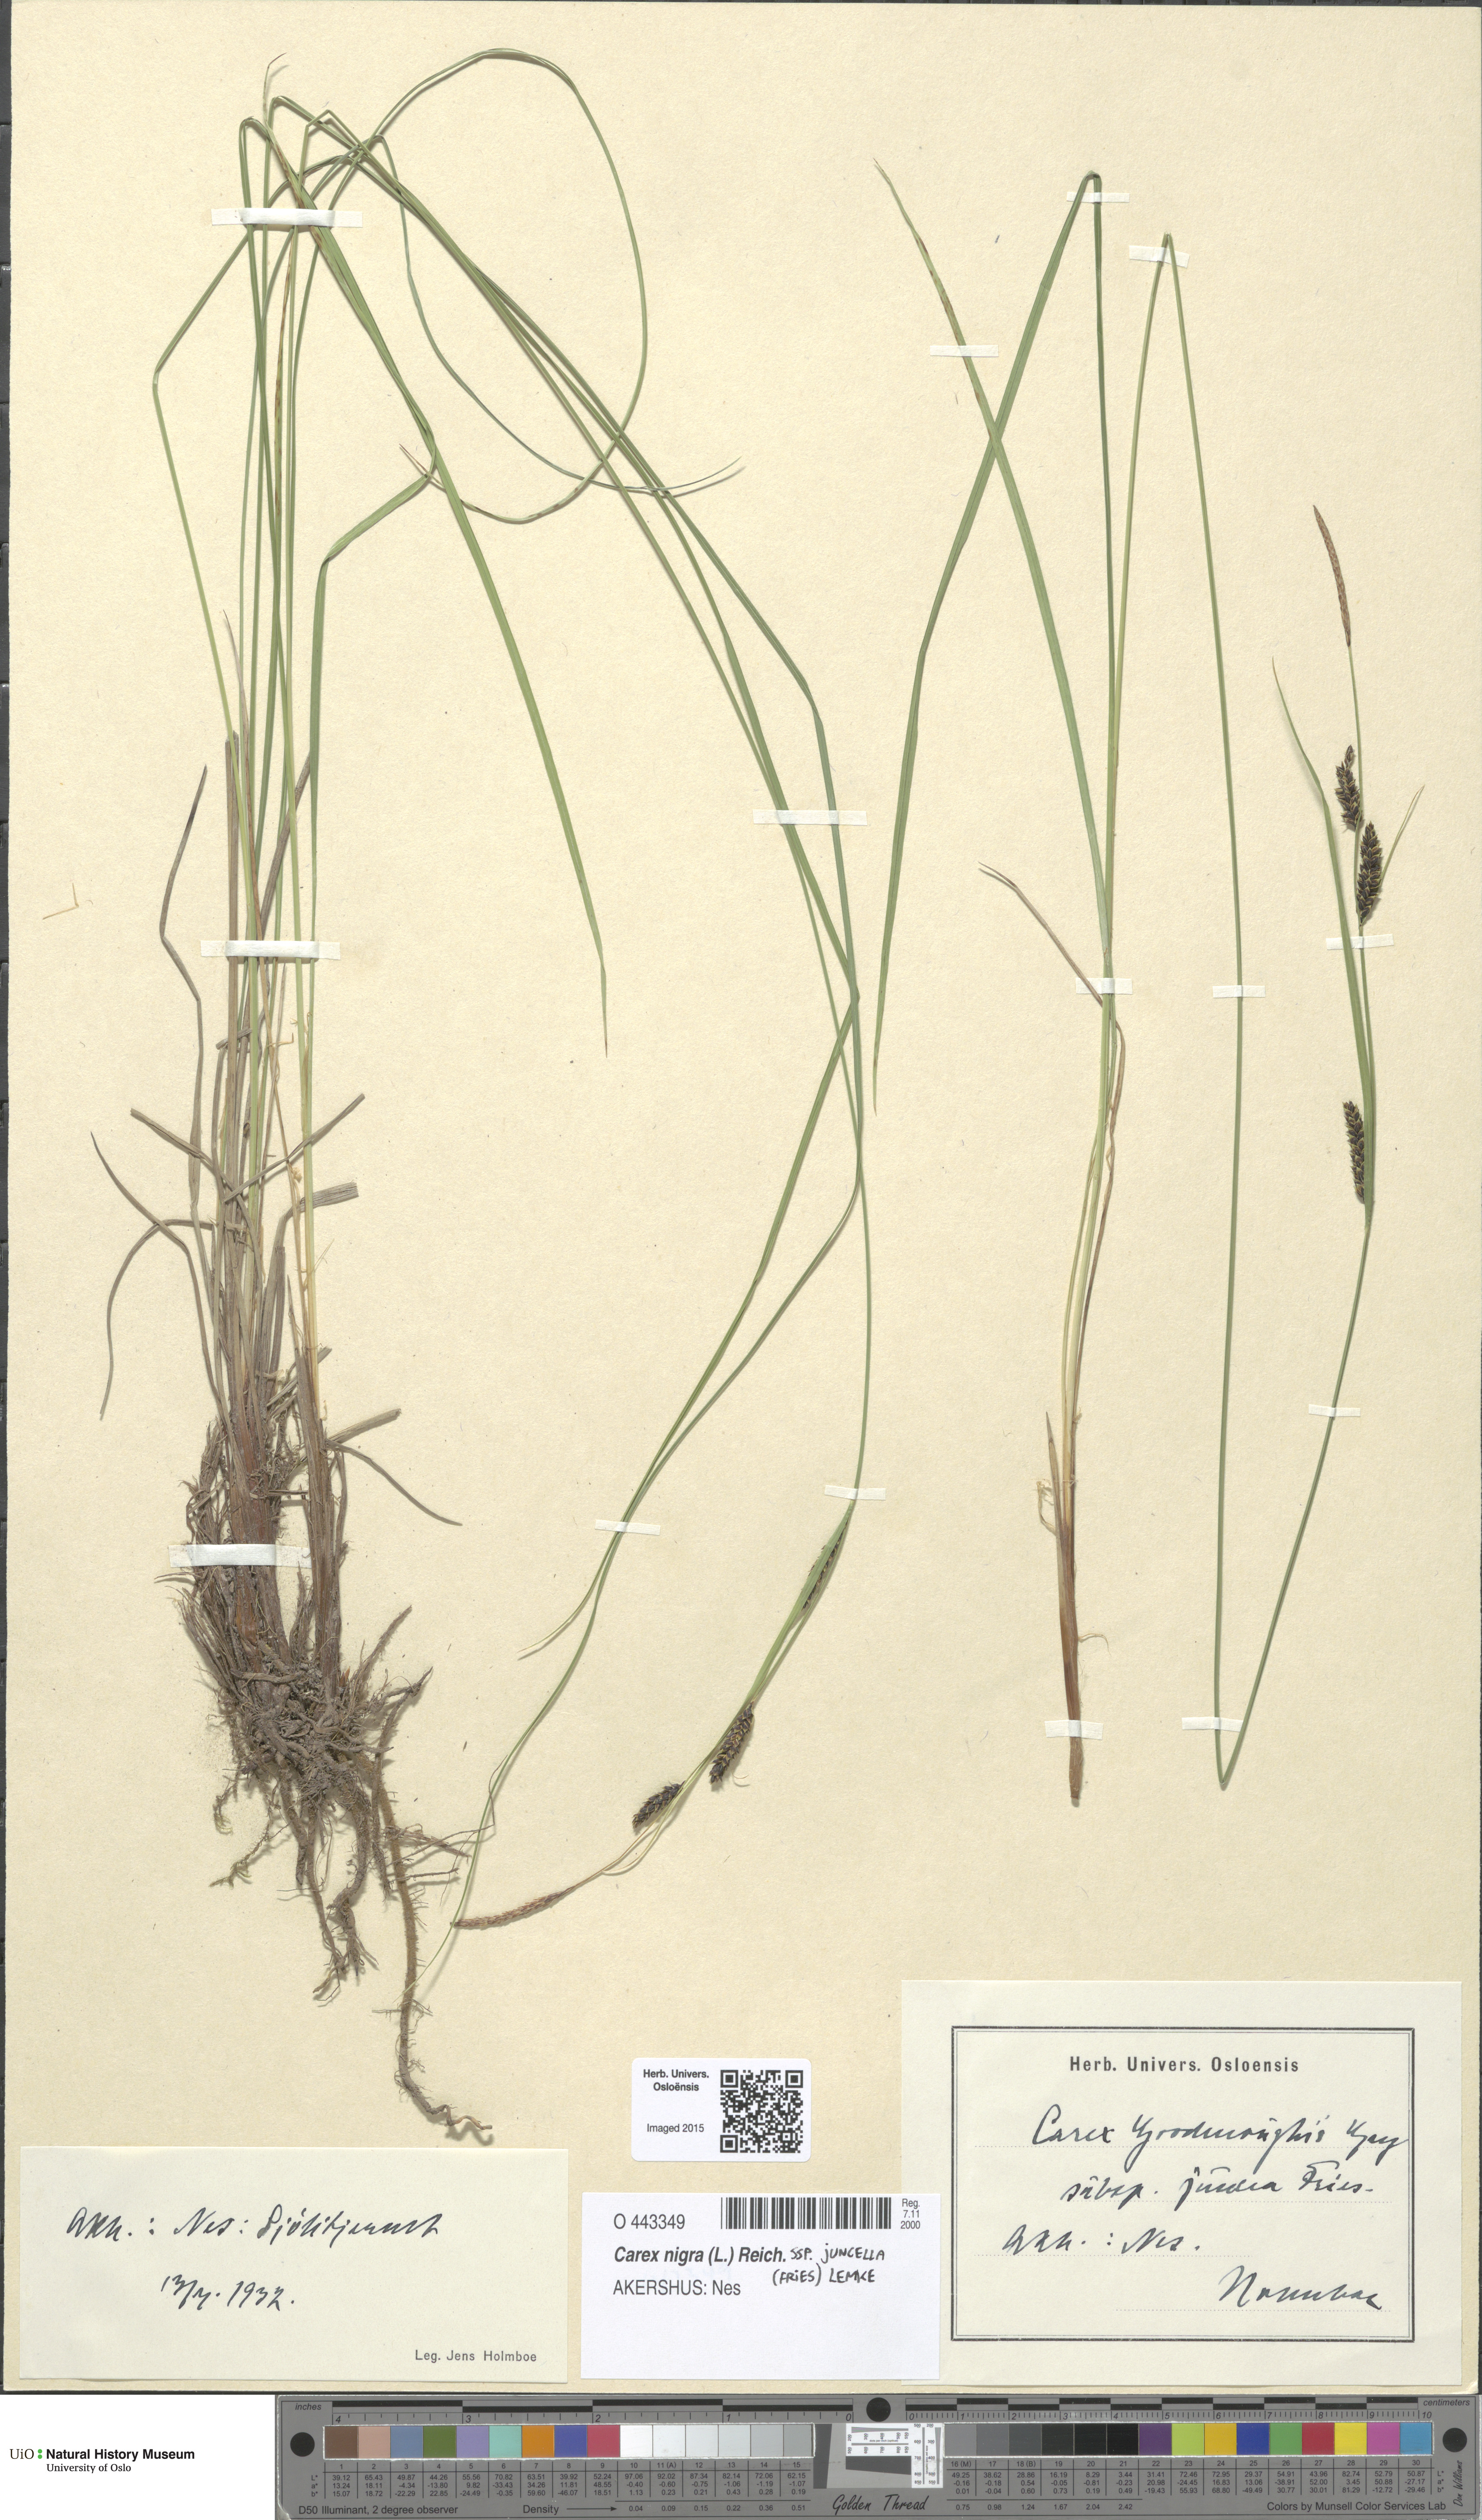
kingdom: Plantae
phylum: Tracheophyta
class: Liliopsida
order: Poales
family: Cyperaceae
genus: Carex
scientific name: Carex nigra
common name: Common sedge
